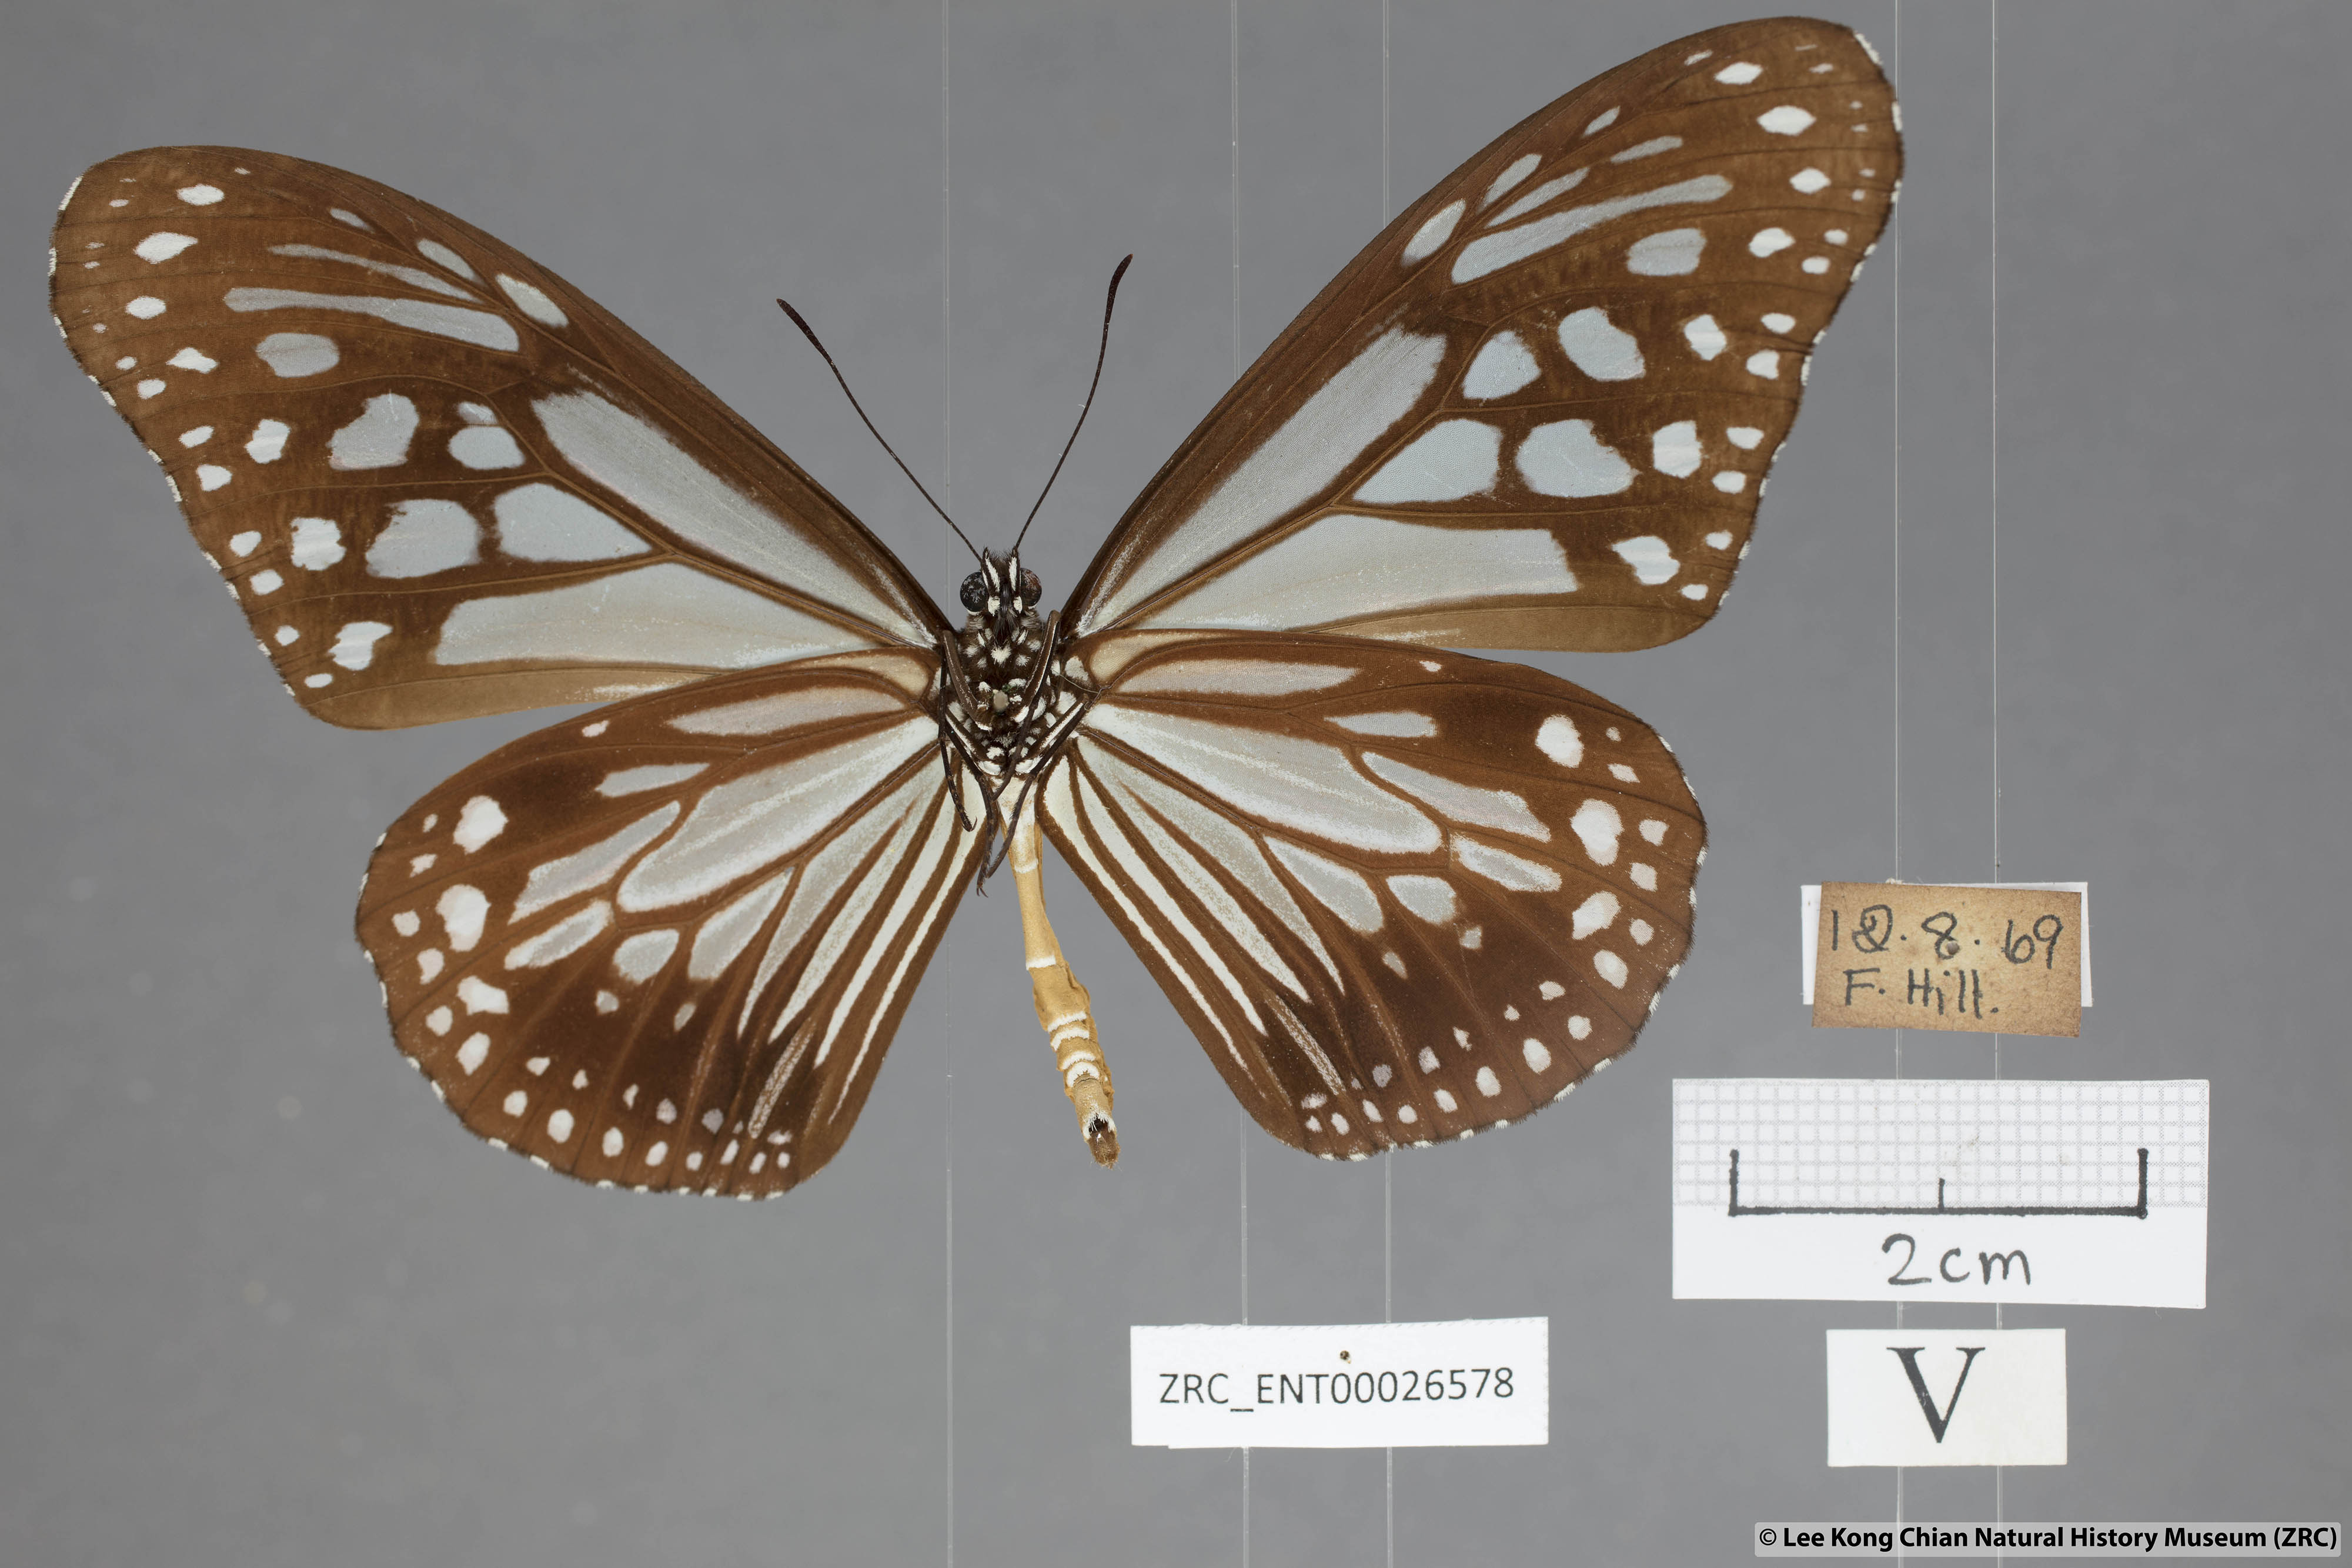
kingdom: Animalia
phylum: Arthropoda
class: Insecta
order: Lepidoptera
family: Nymphalidae
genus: Parantica
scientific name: Parantica melaneus
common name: Chocolate tiger
